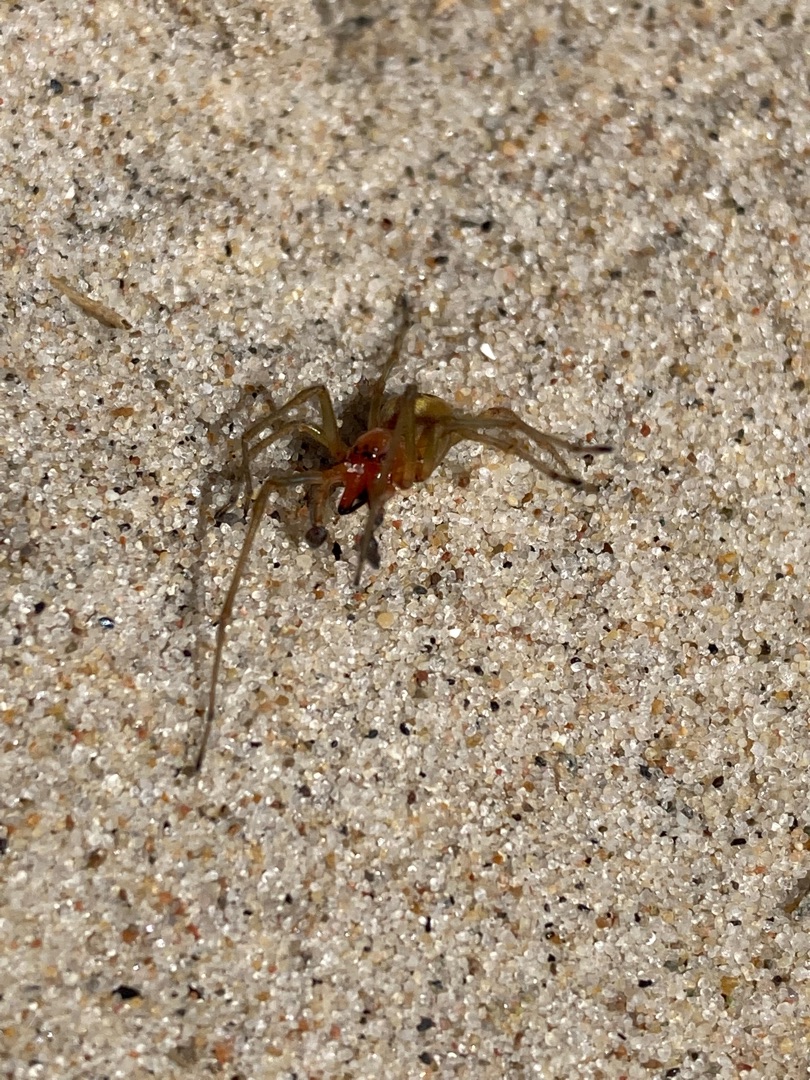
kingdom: Animalia
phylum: Arthropoda
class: Arachnida
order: Araneae
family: Cheiracanthiidae
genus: Cheiracanthium
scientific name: Cheiracanthium
